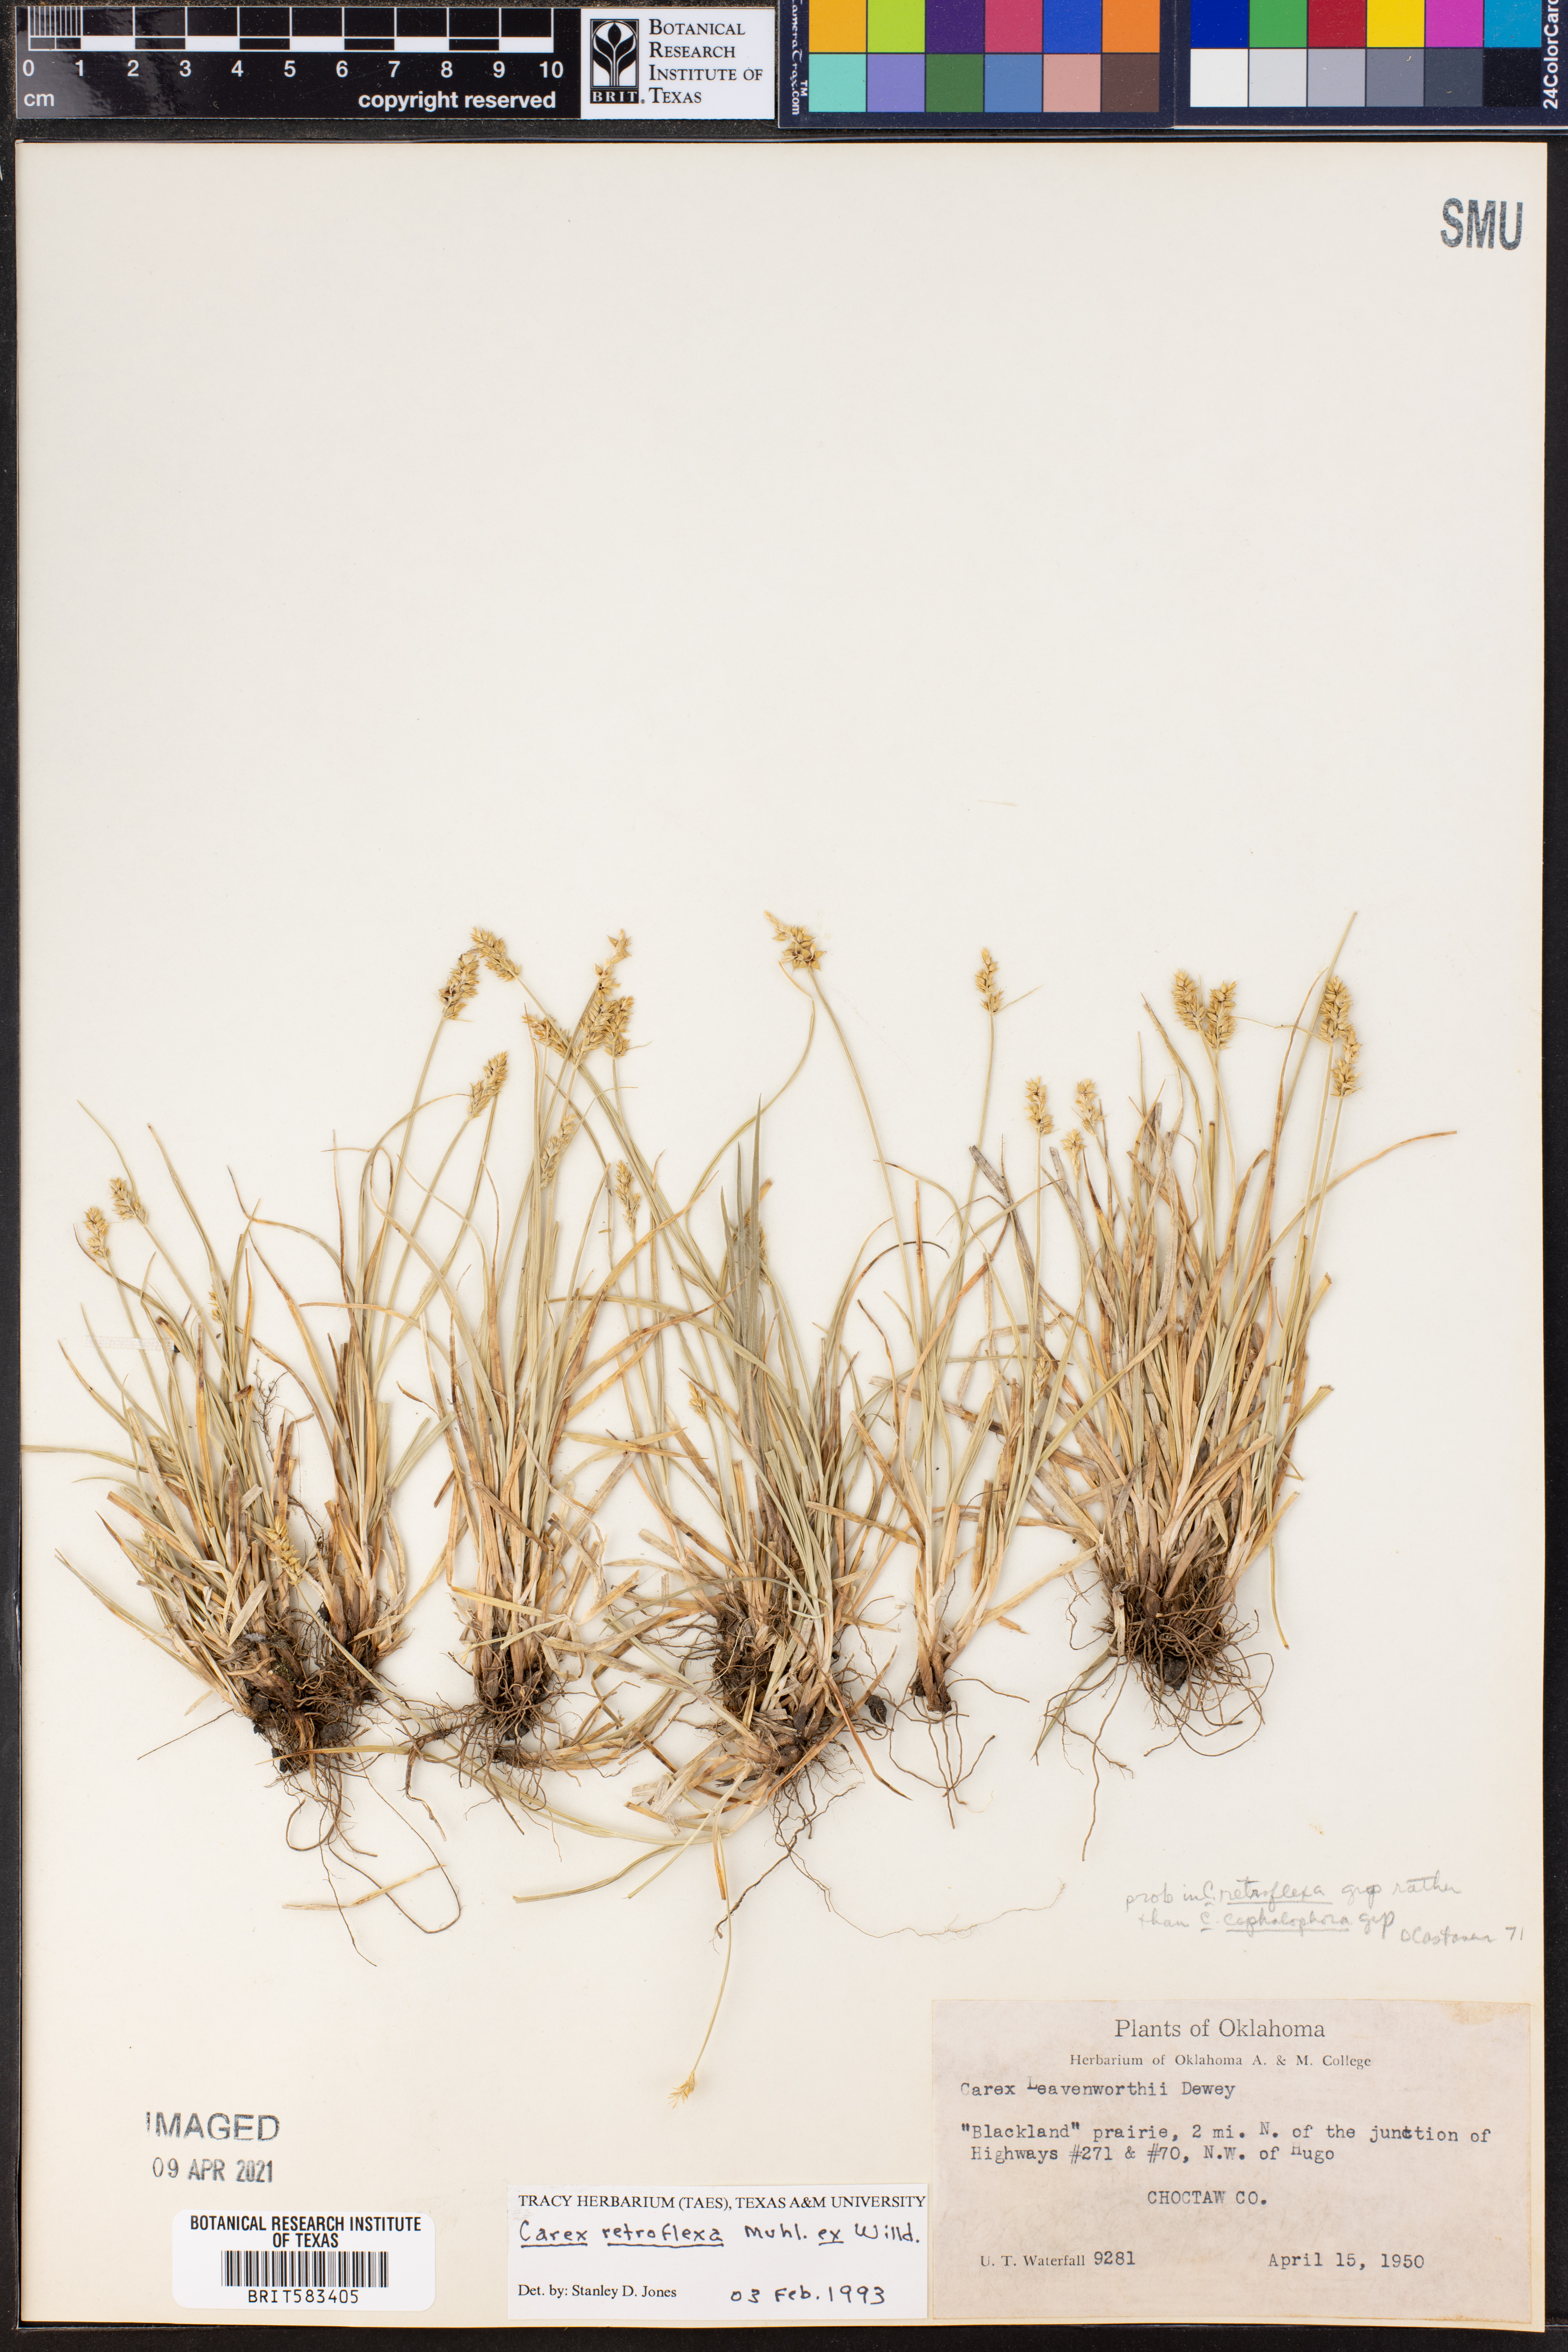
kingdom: Plantae
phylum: Tracheophyta
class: Liliopsida
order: Poales
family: Cyperaceae
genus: Carex
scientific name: Carex retroflexa
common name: Reflexed sedge
